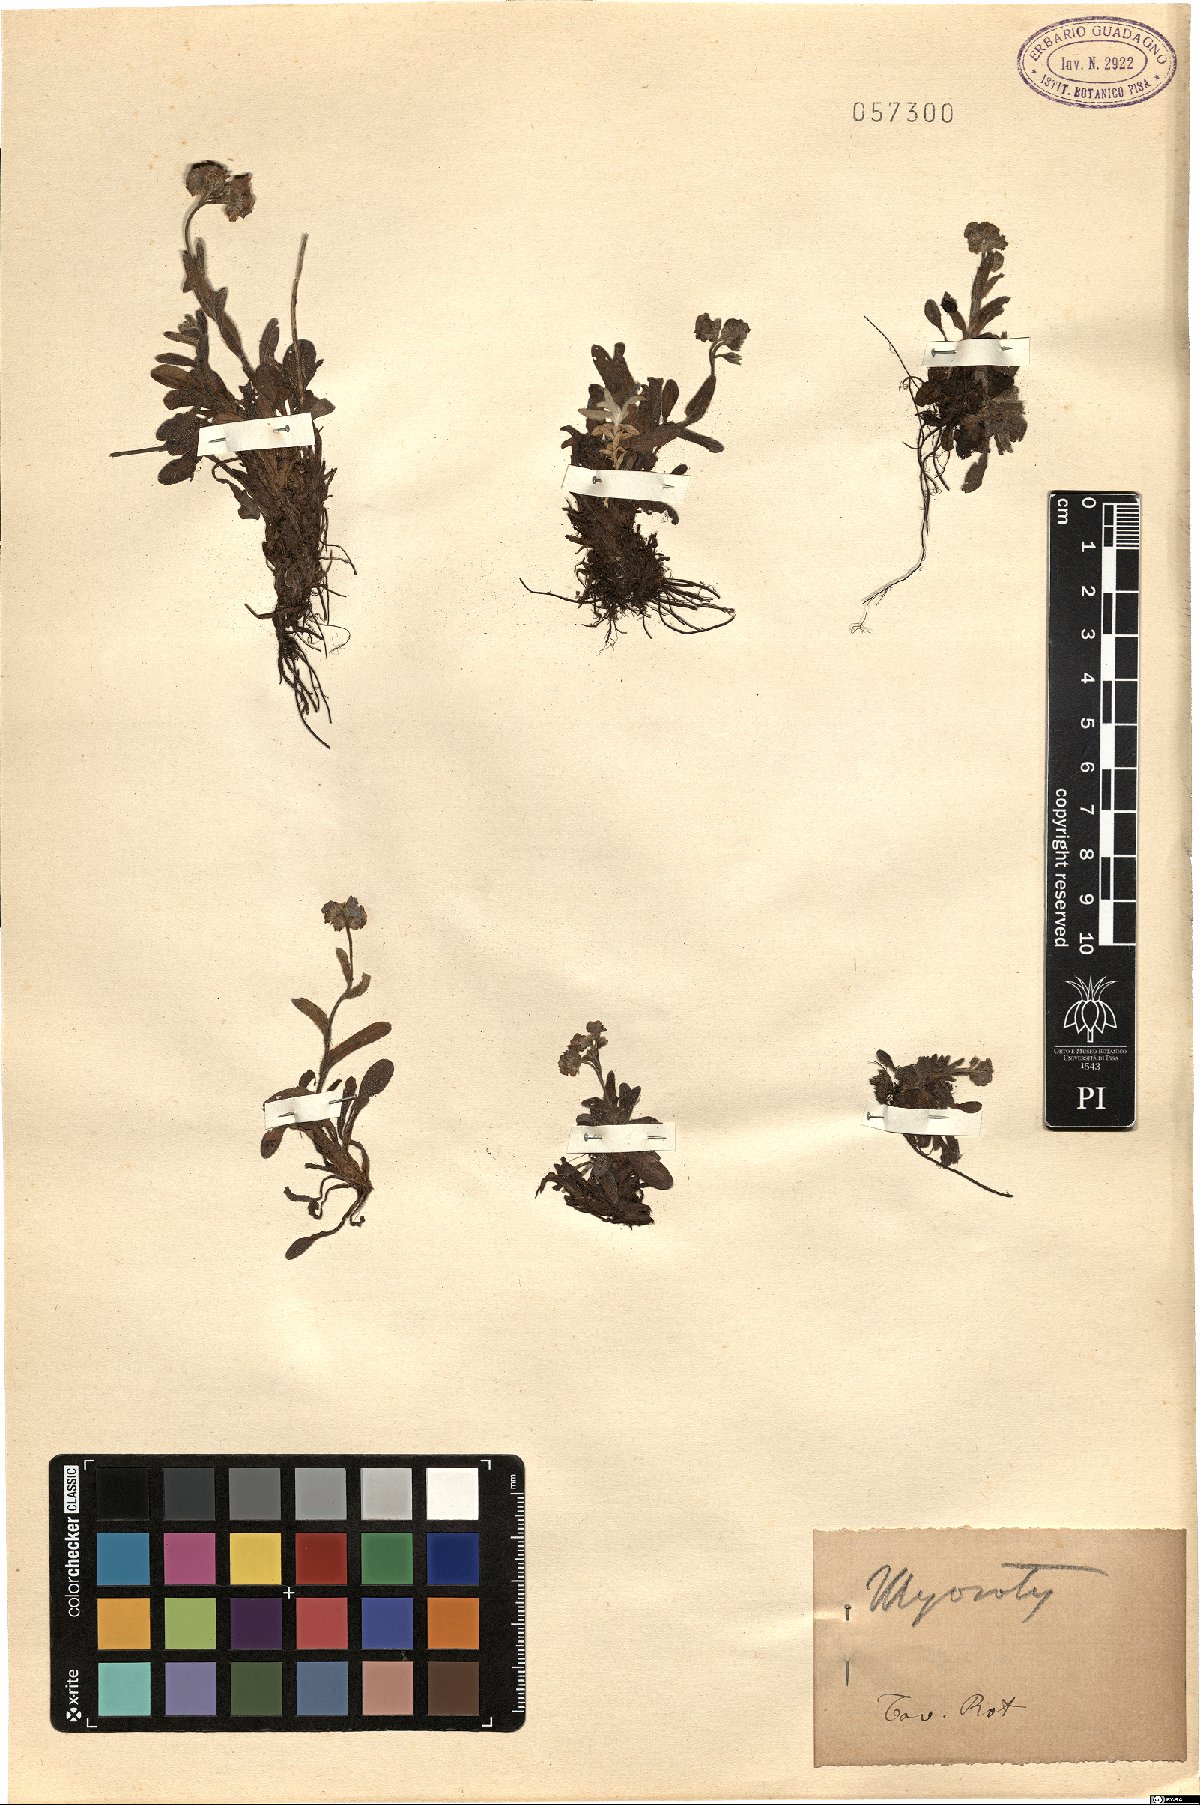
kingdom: Plantae
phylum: Tracheophyta
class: Magnoliopsida
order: Boraginales
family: Boraginaceae
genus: Myosotis
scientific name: Myosotis
